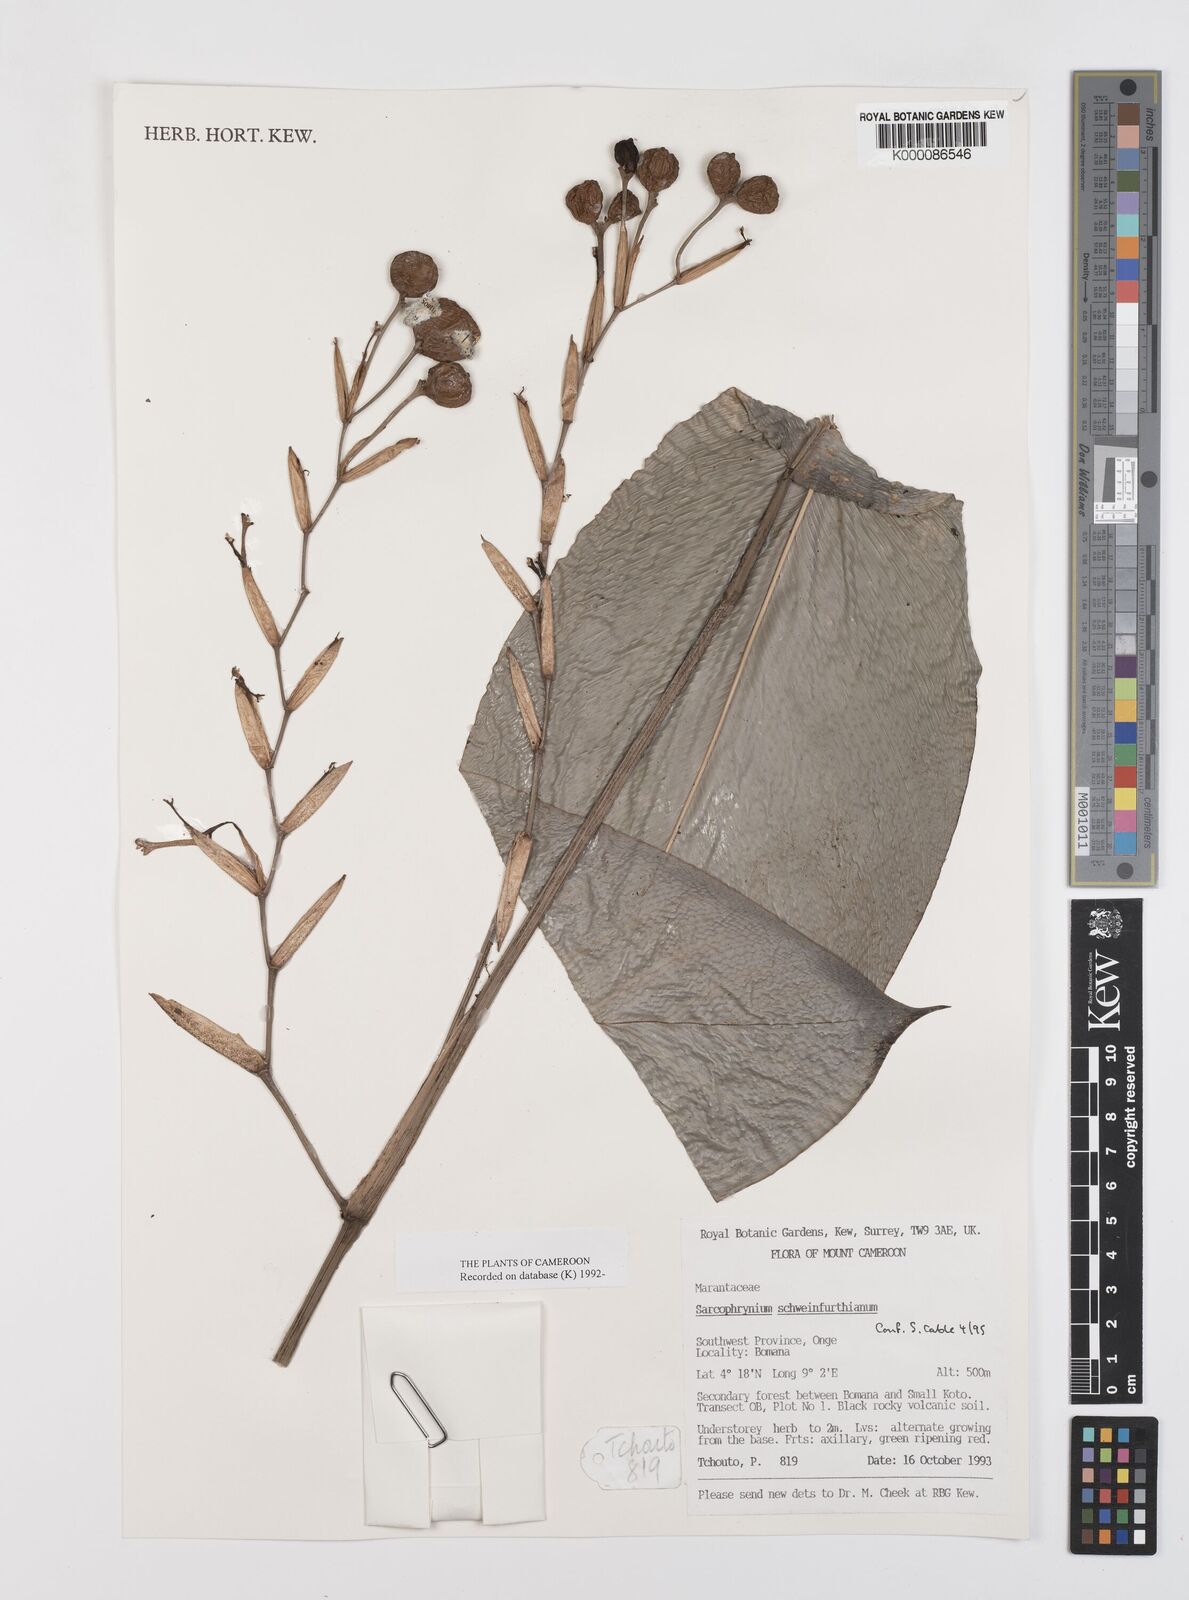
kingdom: Plantae
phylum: Tracheophyta
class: Liliopsida
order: Zingiberales
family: Marantaceae
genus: Sarcophrynium
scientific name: Sarcophrynium schweinfurthianum
